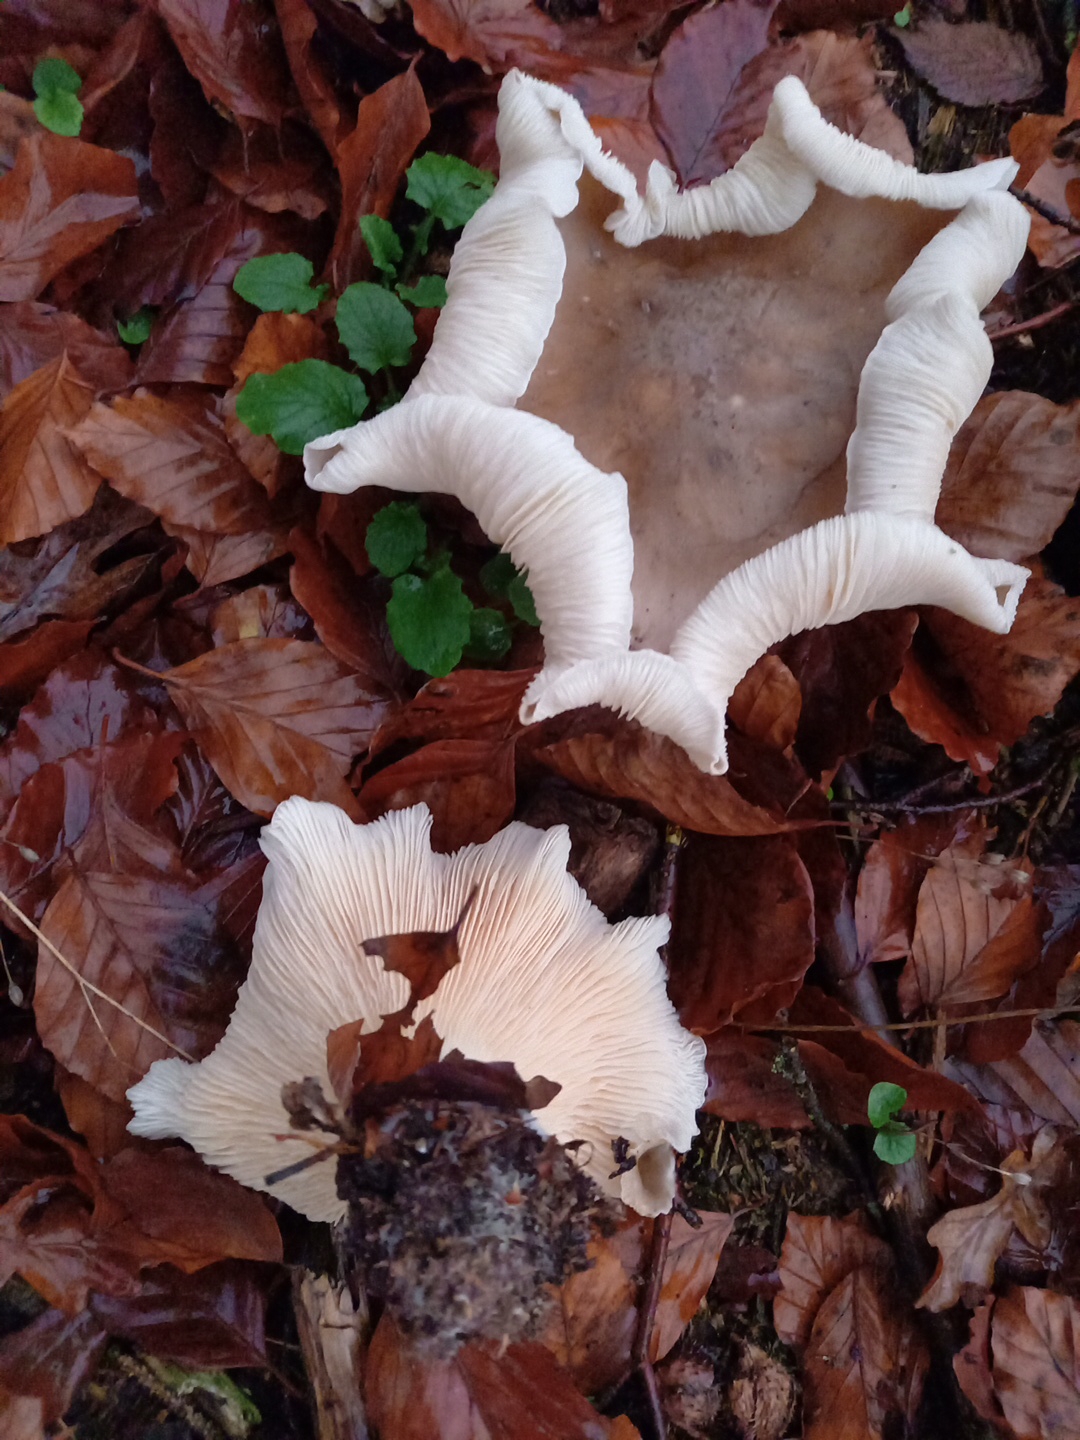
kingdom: Fungi
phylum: Basidiomycota
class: Agaricomycetes
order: Agaricales
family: Tricholomataceae
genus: Clitocybe
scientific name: Clitocybe nebularis
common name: tåge-tragthat
